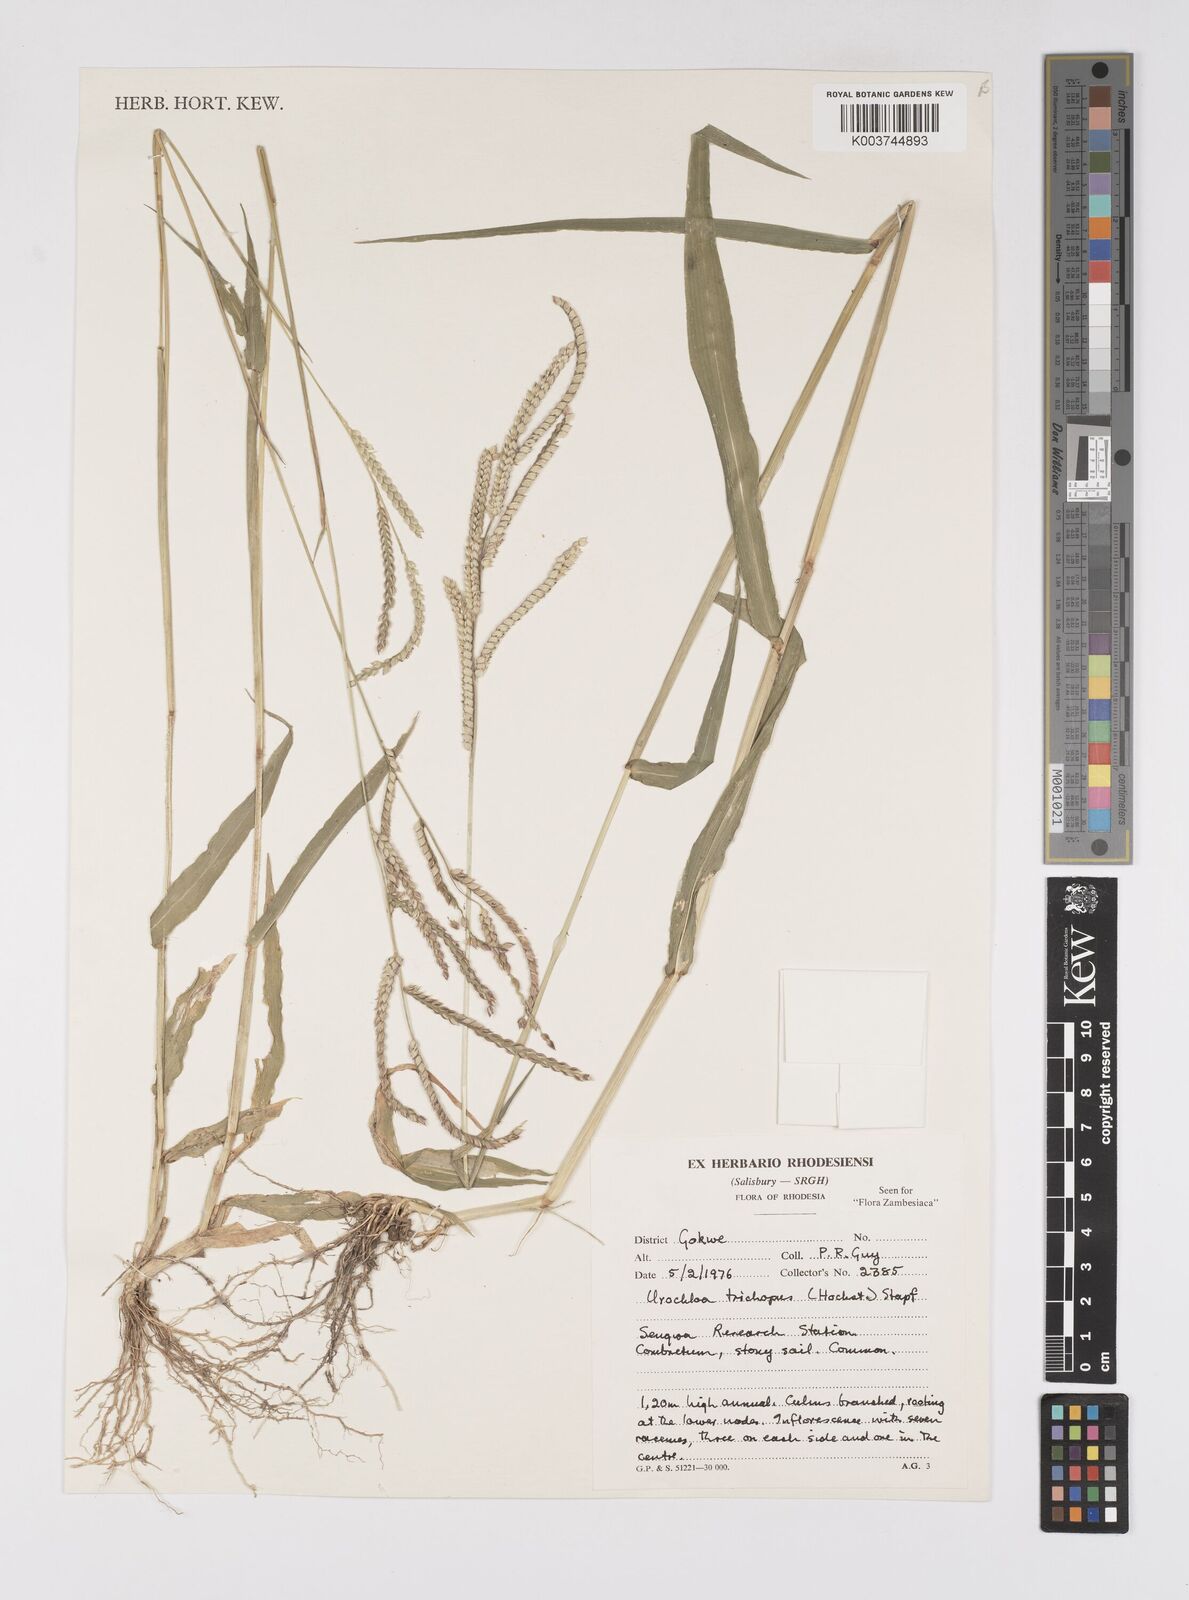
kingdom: Plantae
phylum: Tracheophyta
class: Liliopsida
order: Poales
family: Poaceae
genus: Urochloa
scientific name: Urochloa trichopus
